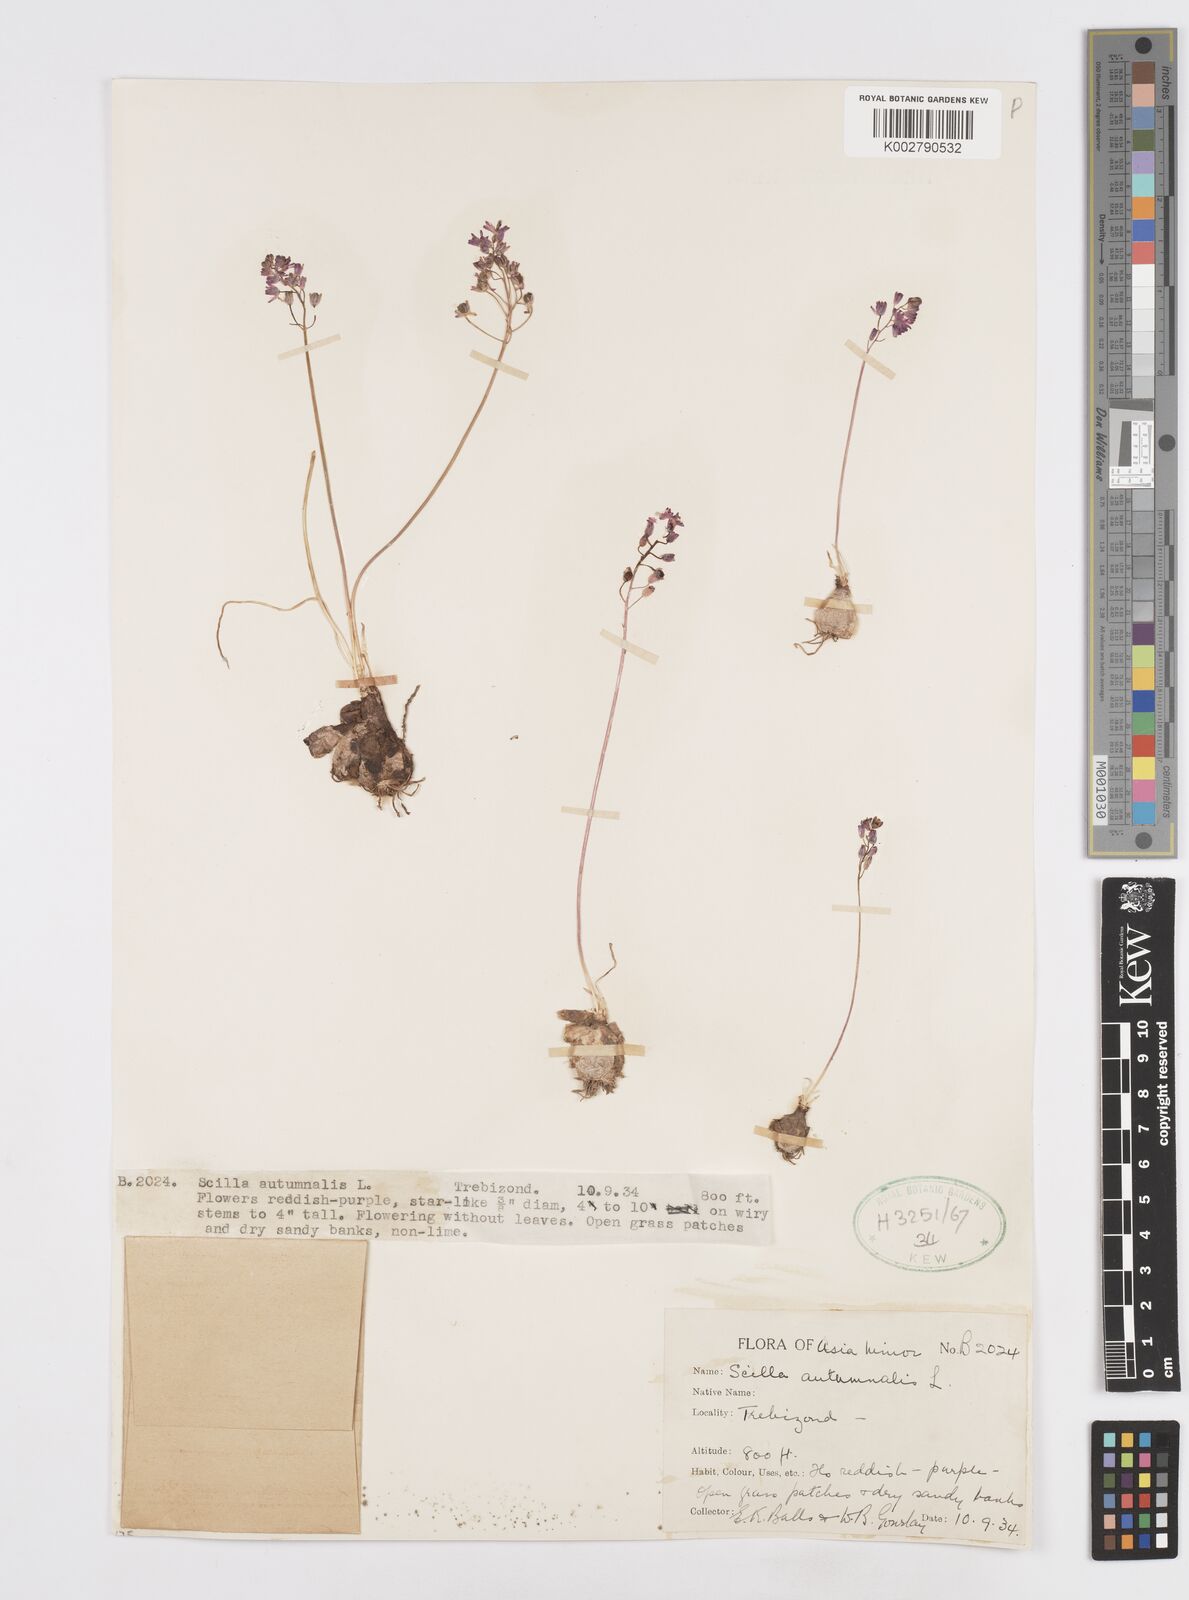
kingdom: Plantae
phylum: Tracheophyta
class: Liliopsida
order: Asparagales
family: Asparagaceae
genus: Prospero
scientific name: Prospero autumnale
